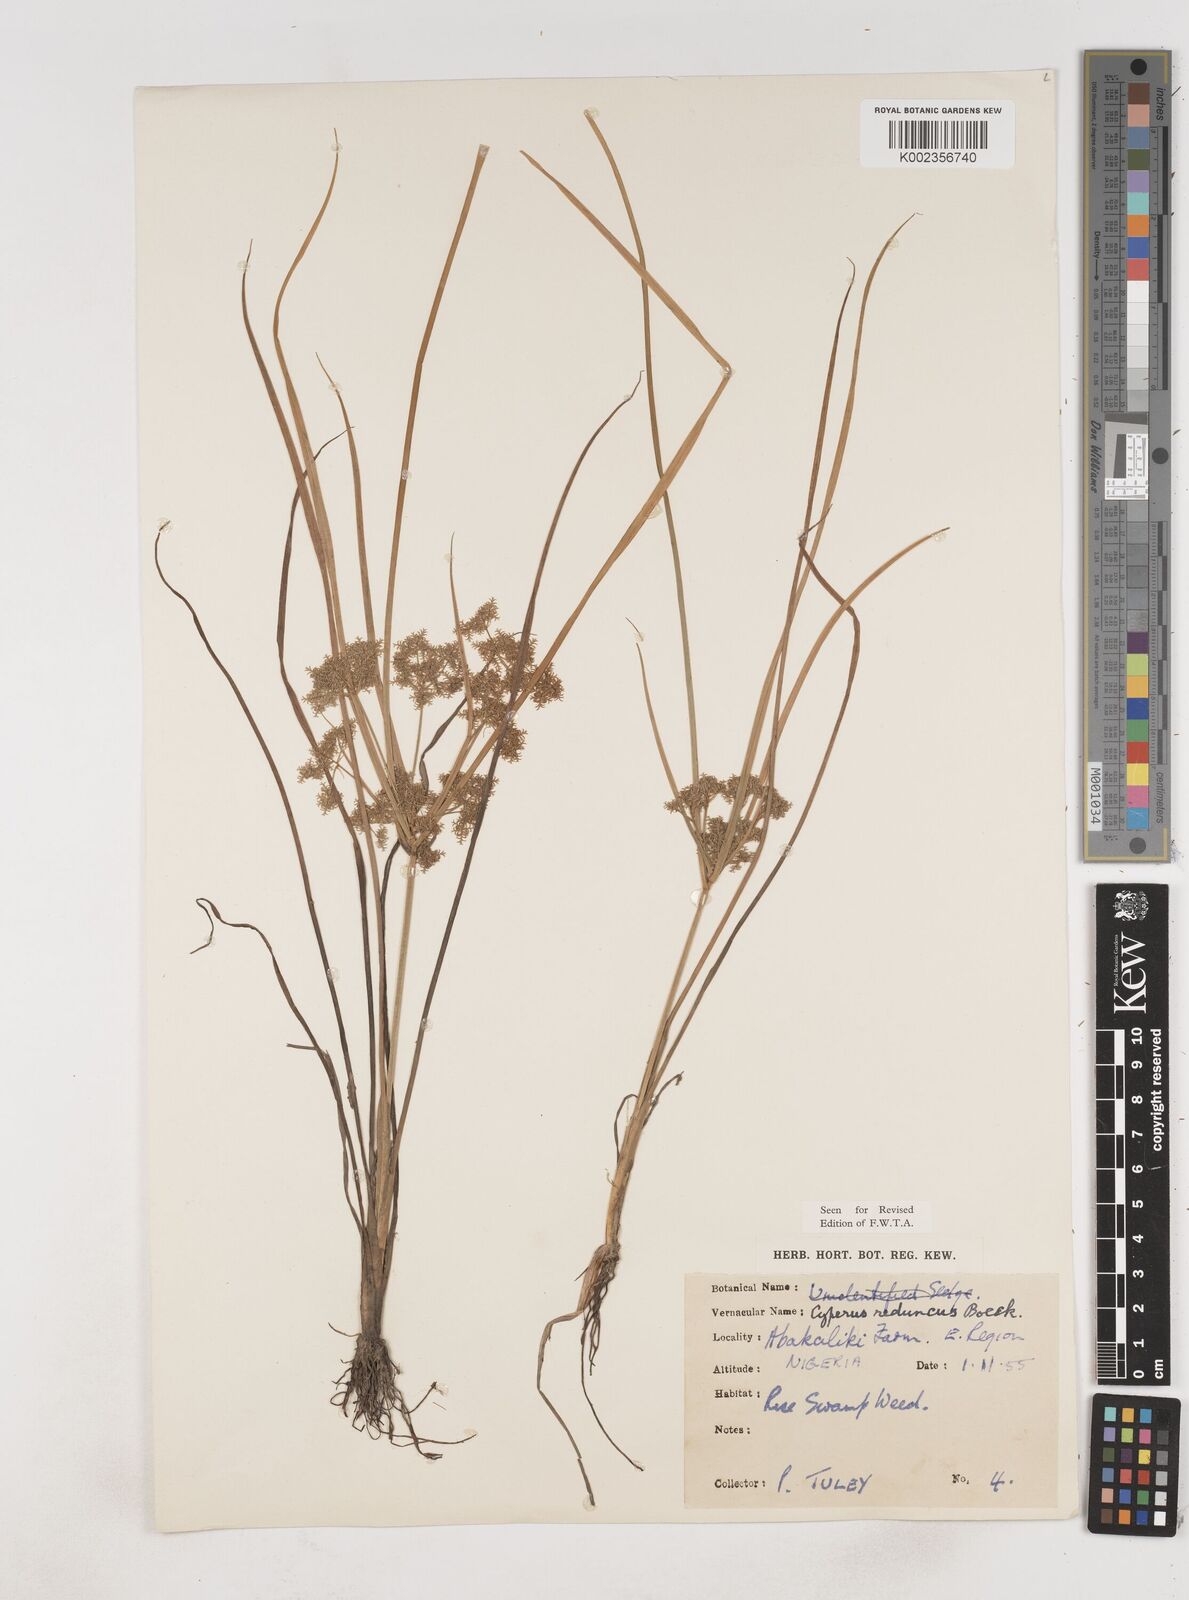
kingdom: Plantae
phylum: Tracheophyta
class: Liliopsida
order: Poales
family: Cyperaceae
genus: Cyperus
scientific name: Cyperus reduncus
